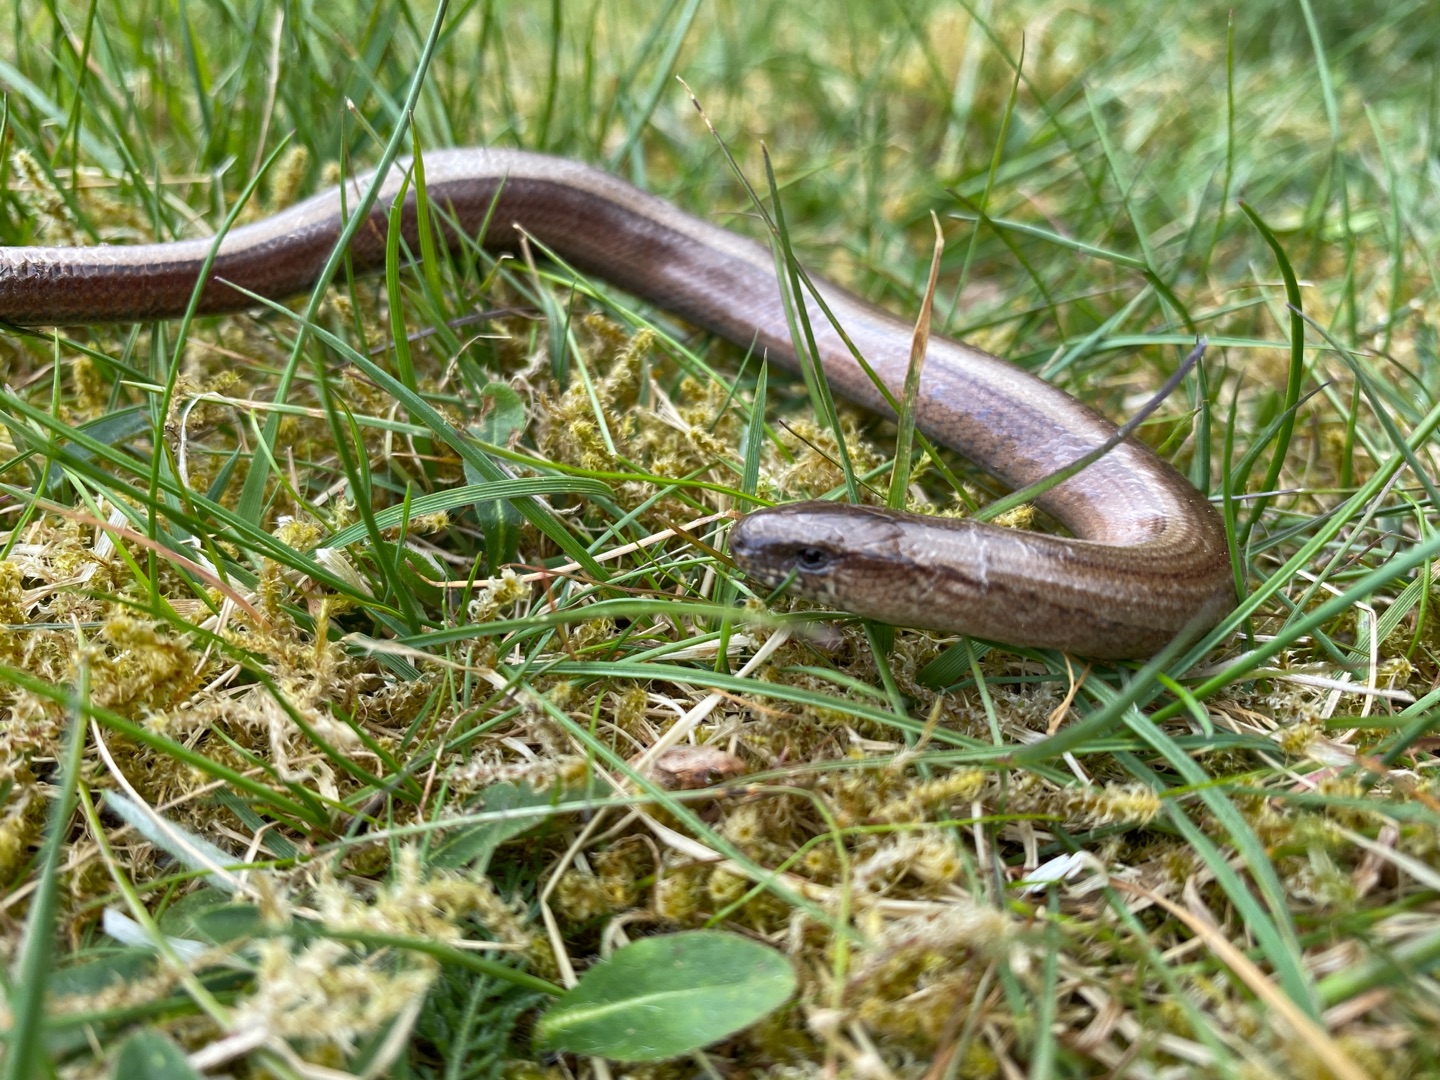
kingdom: Animalia
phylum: Chordata
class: Squamata
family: Anguidae
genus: Anguis
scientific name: Anguis fragilis
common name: Stålorm
